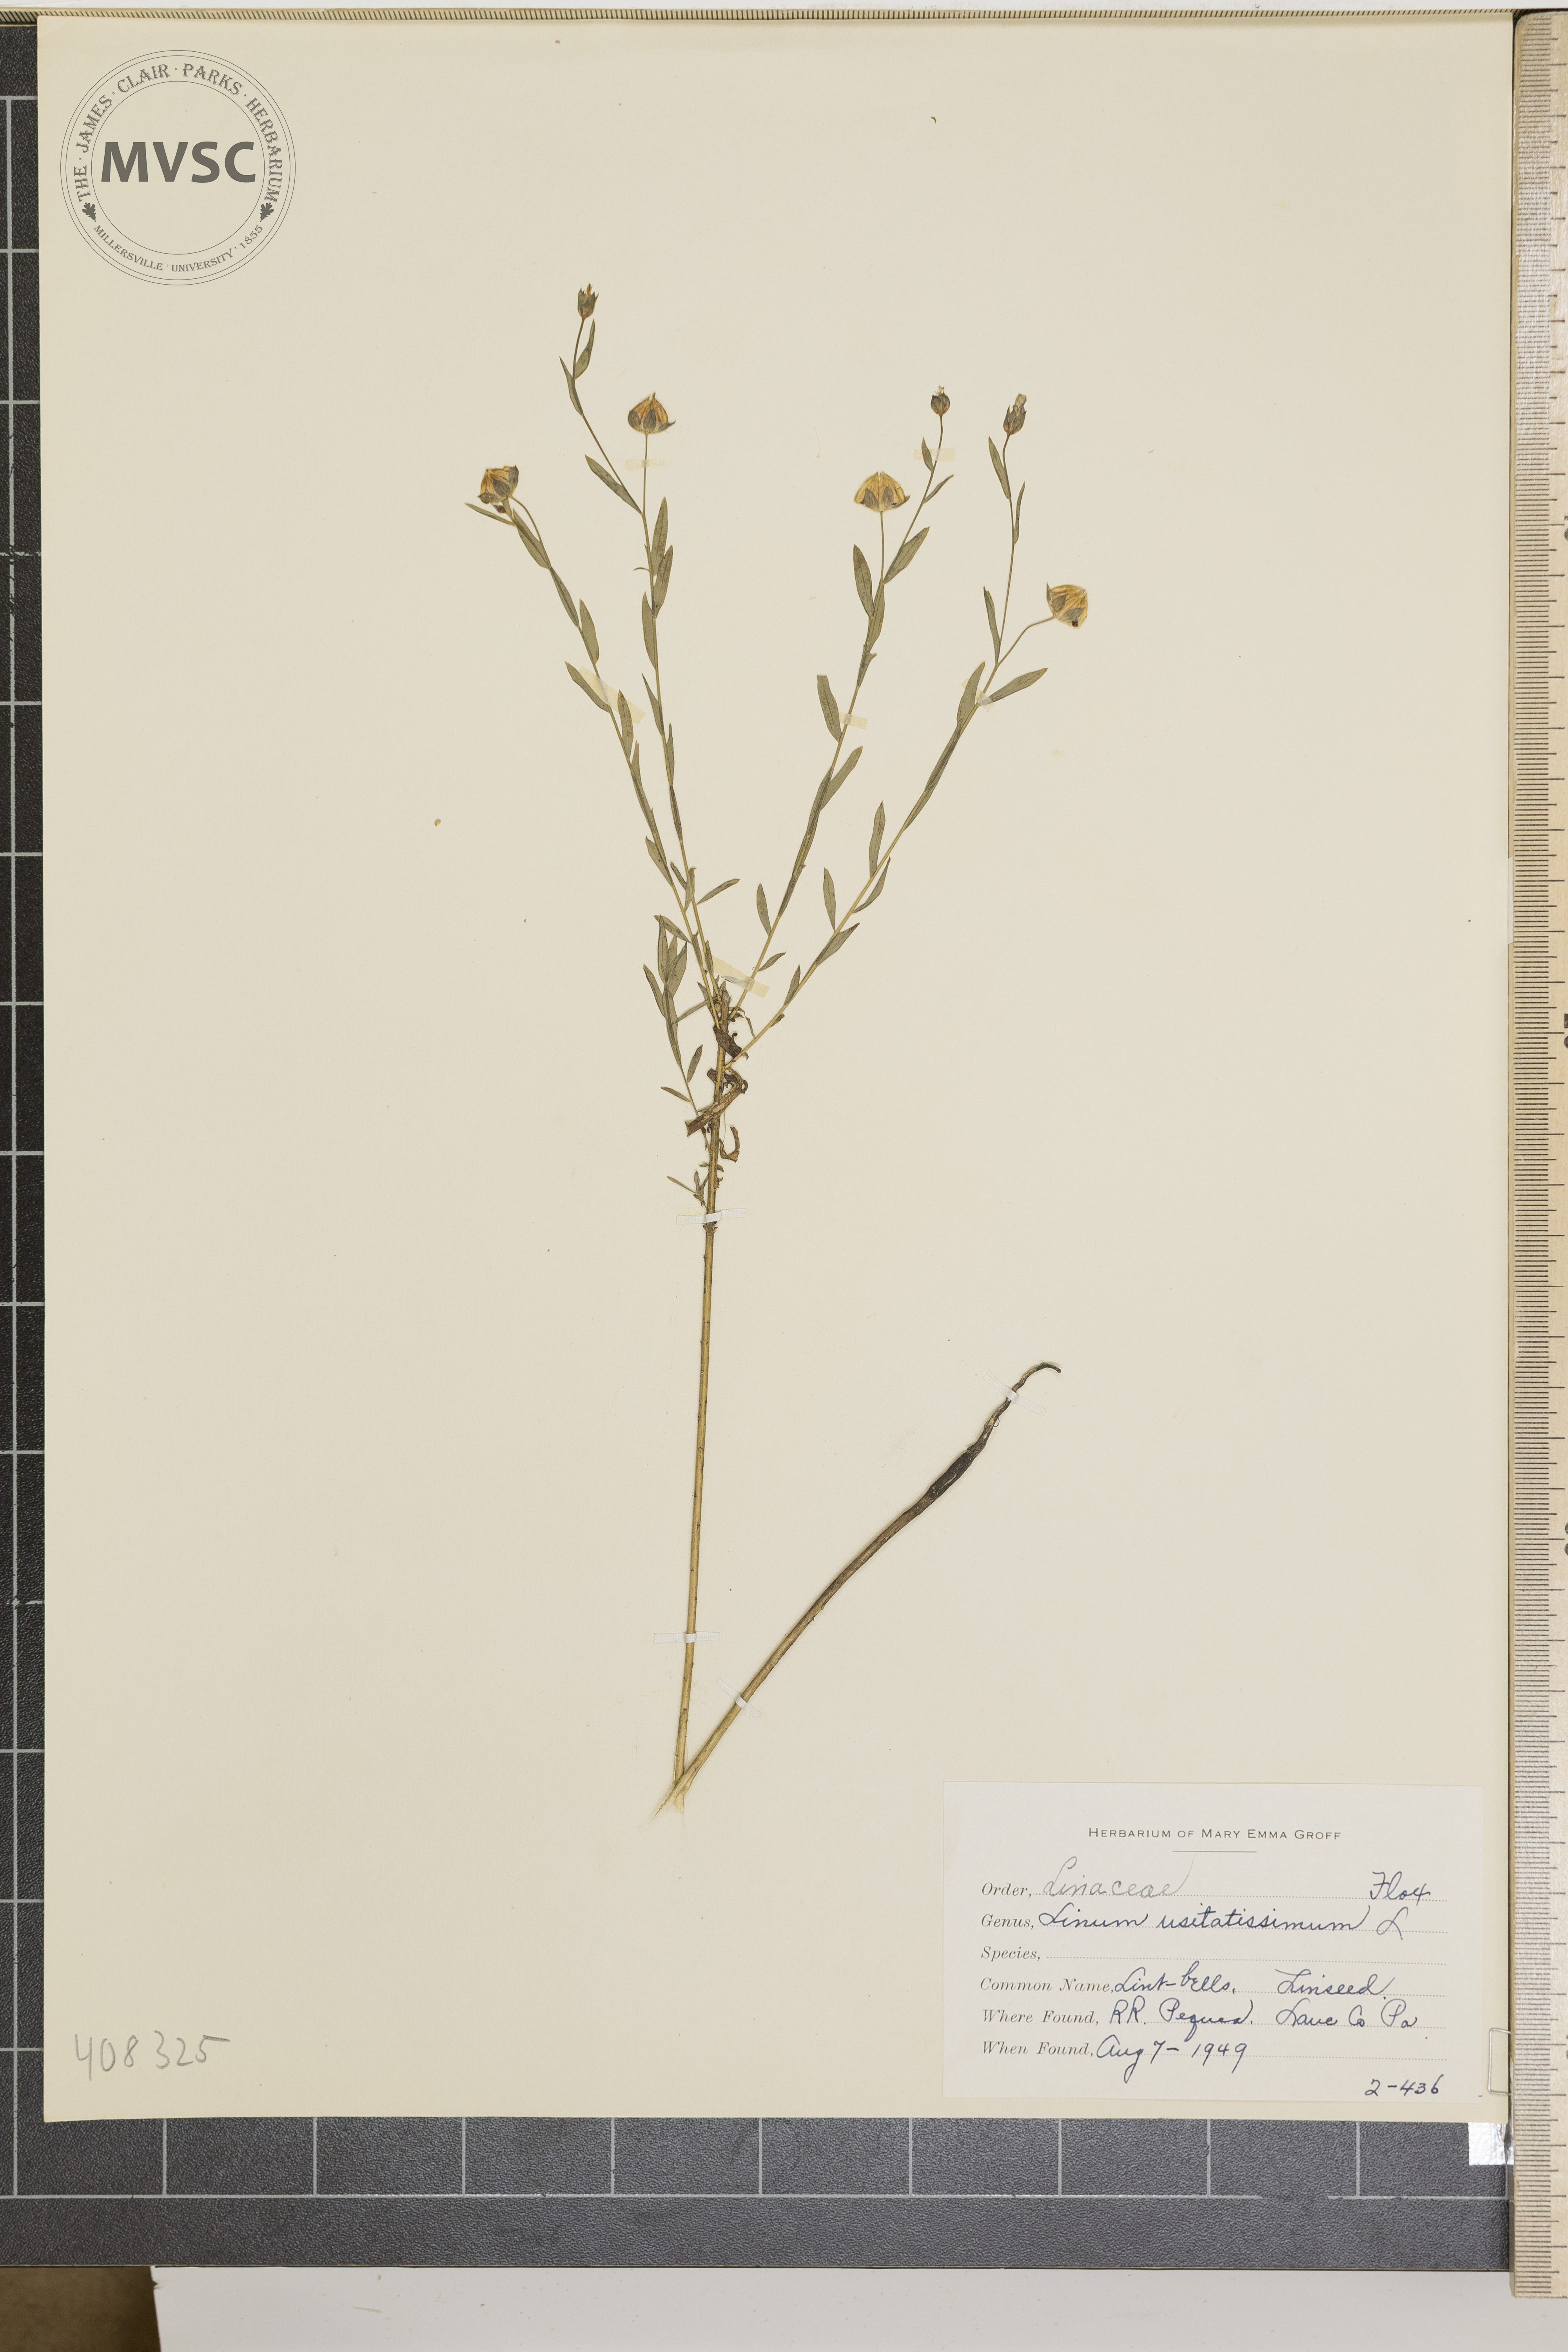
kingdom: Plantae
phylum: Tracheophyta
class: Magnoliopsida
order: Malpighiales
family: Linaceae
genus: Linum
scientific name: Linum usitatissimum
